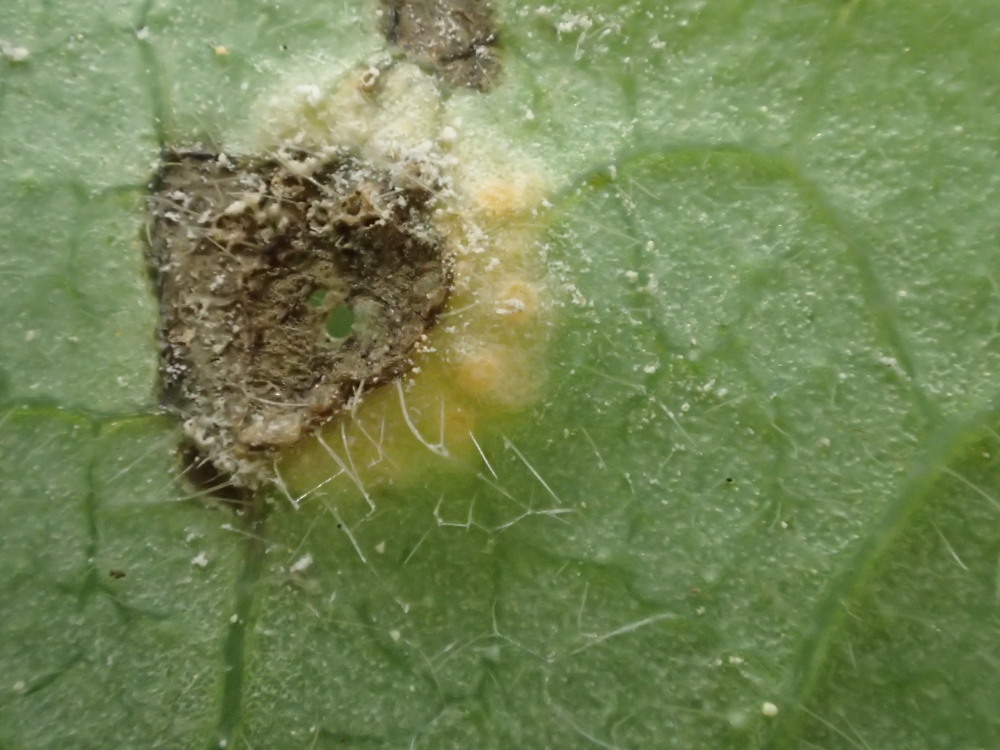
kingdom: Fungi
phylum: Basidiomycota
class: Pucciniomycetes
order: Pucciniales
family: Pucciniaceae
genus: Puccinia
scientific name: Puccinia festucae
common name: gedeblad-tvecellerust
